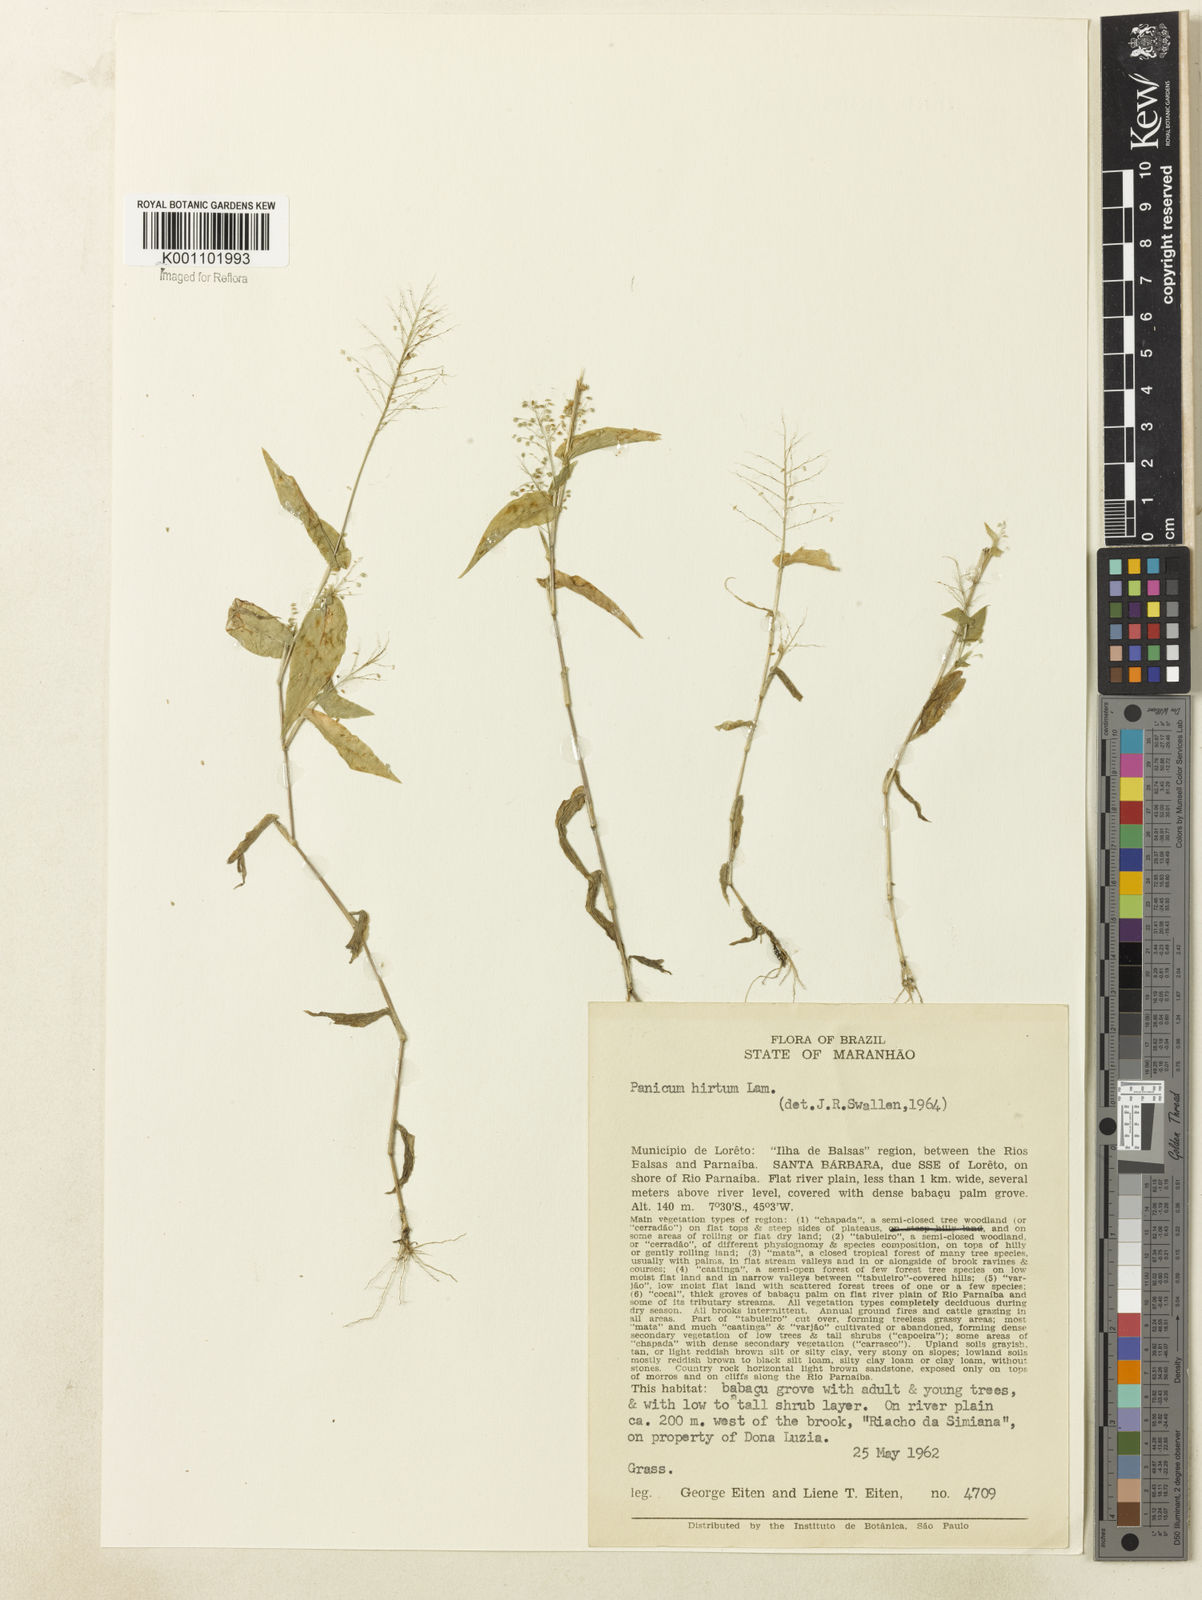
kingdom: Plantae
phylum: Tracheophyta
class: Liliopsida
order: Poales
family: Poaceae
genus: Panicum
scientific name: Panicum hirtum
